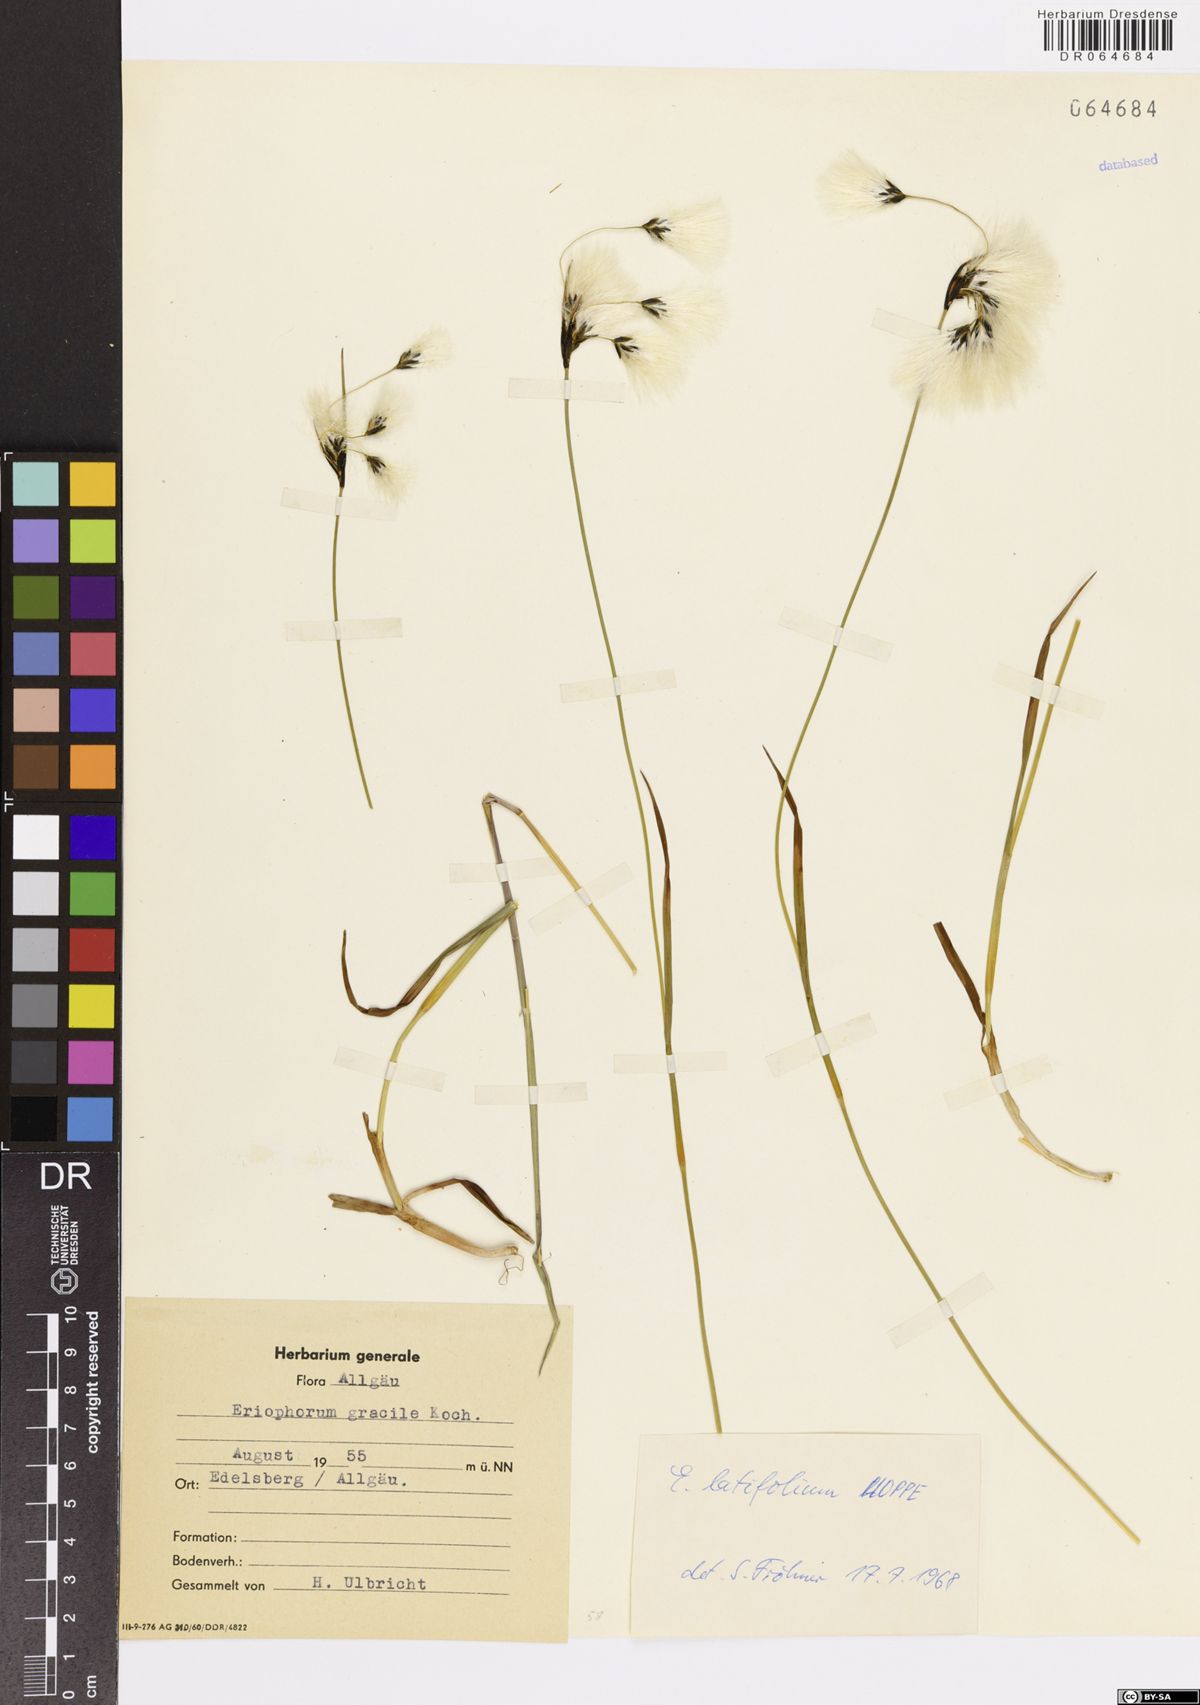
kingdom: Plantae
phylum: Tracheophyta
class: Liliopsida
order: Poales
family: Cyperaceae
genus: Eriophorum
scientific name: Eriophorum latifolium
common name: Broad-leaved cottongrass
